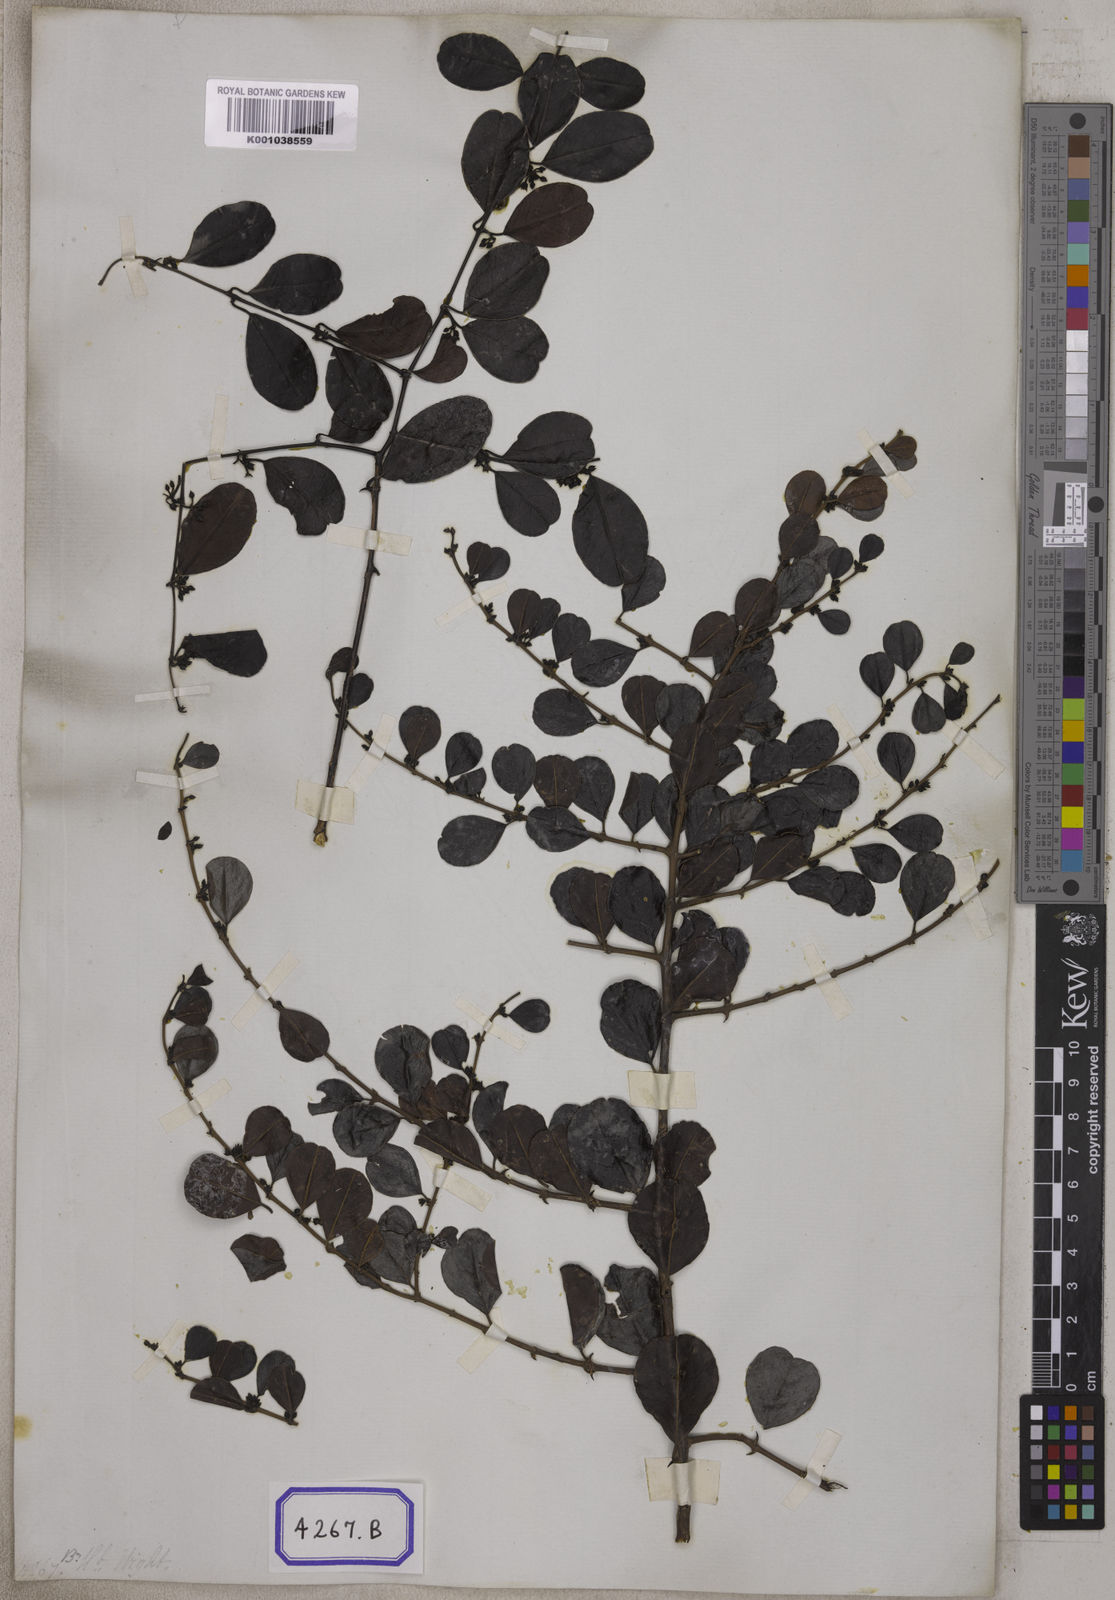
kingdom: Plantae
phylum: Tracheophyta
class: Magnoliopsida
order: Rosales
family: Rhamnaceae
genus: Ceanothus
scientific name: Ceanothus
